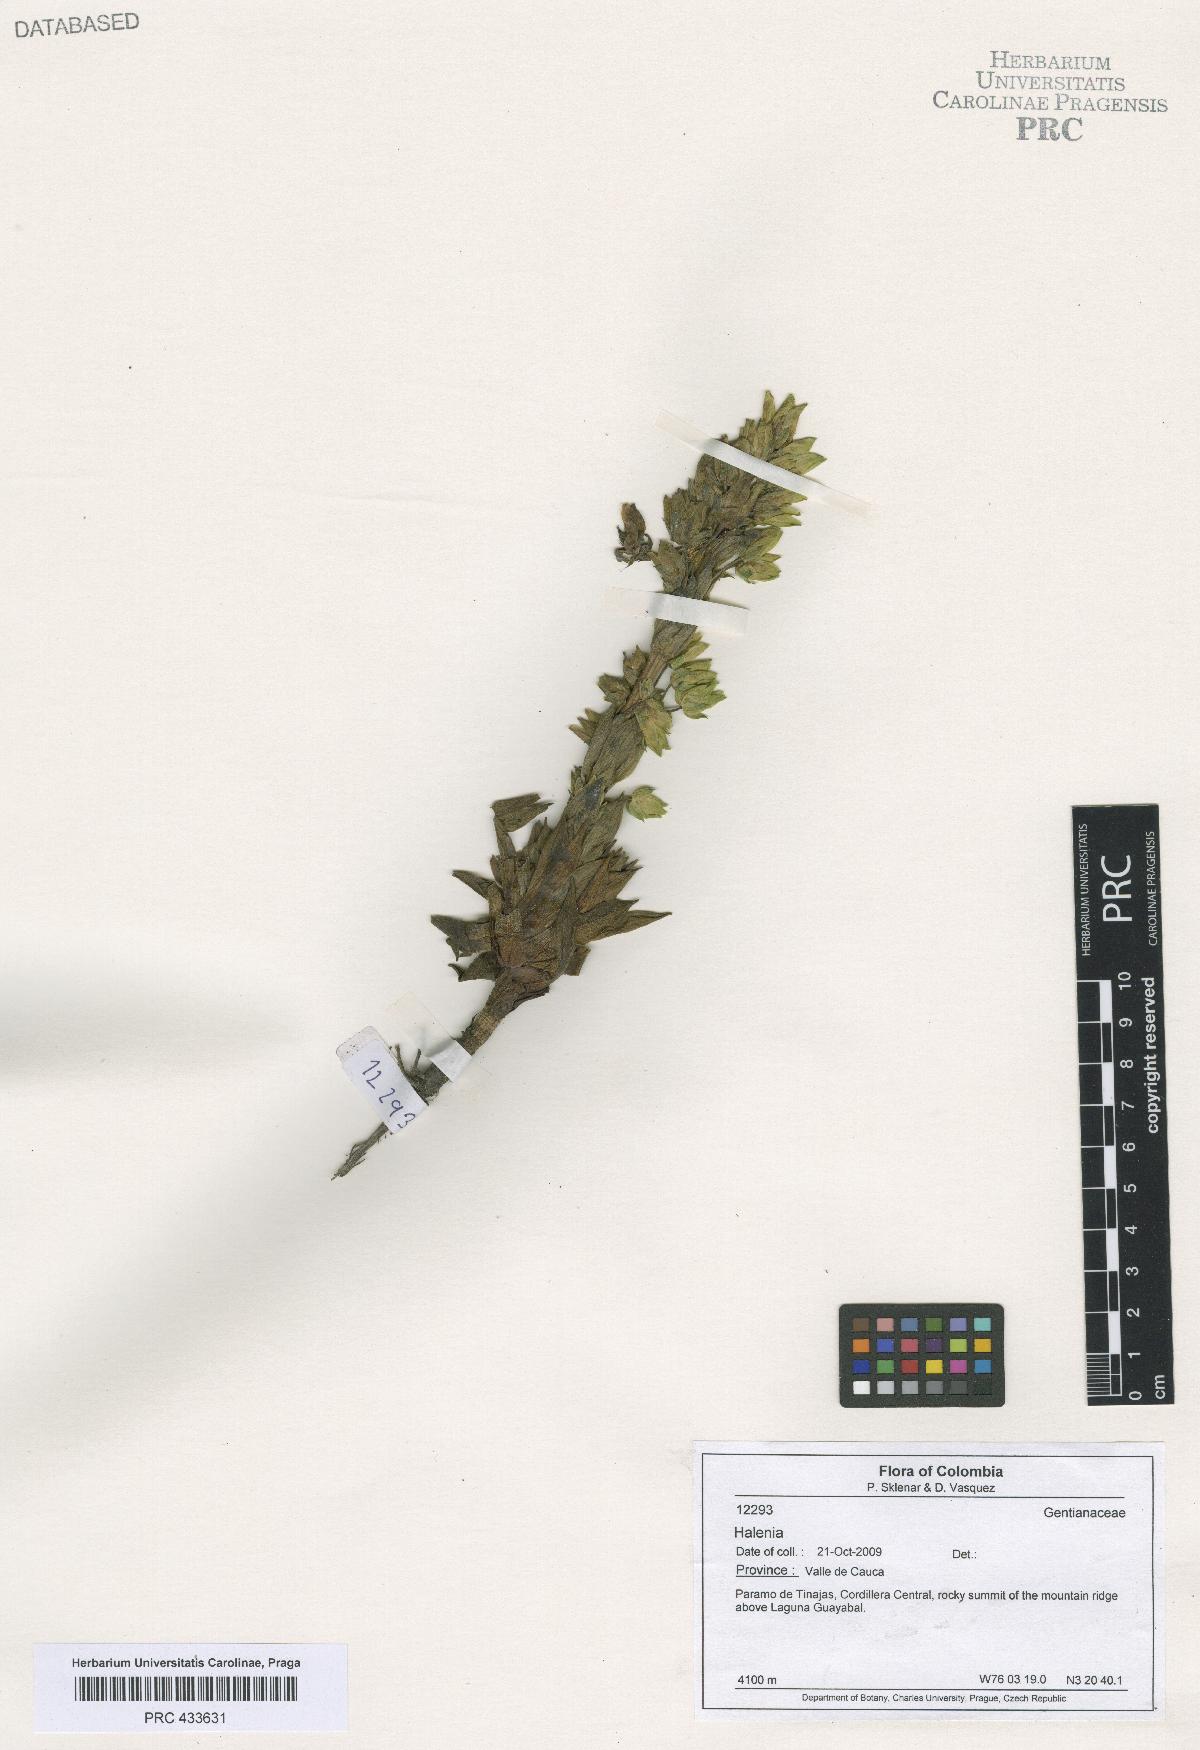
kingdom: Plantae
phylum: Tracheophyta
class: Magnoliopsida
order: Gentianales
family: Gentianaceae
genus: Halenia
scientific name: Halenia
